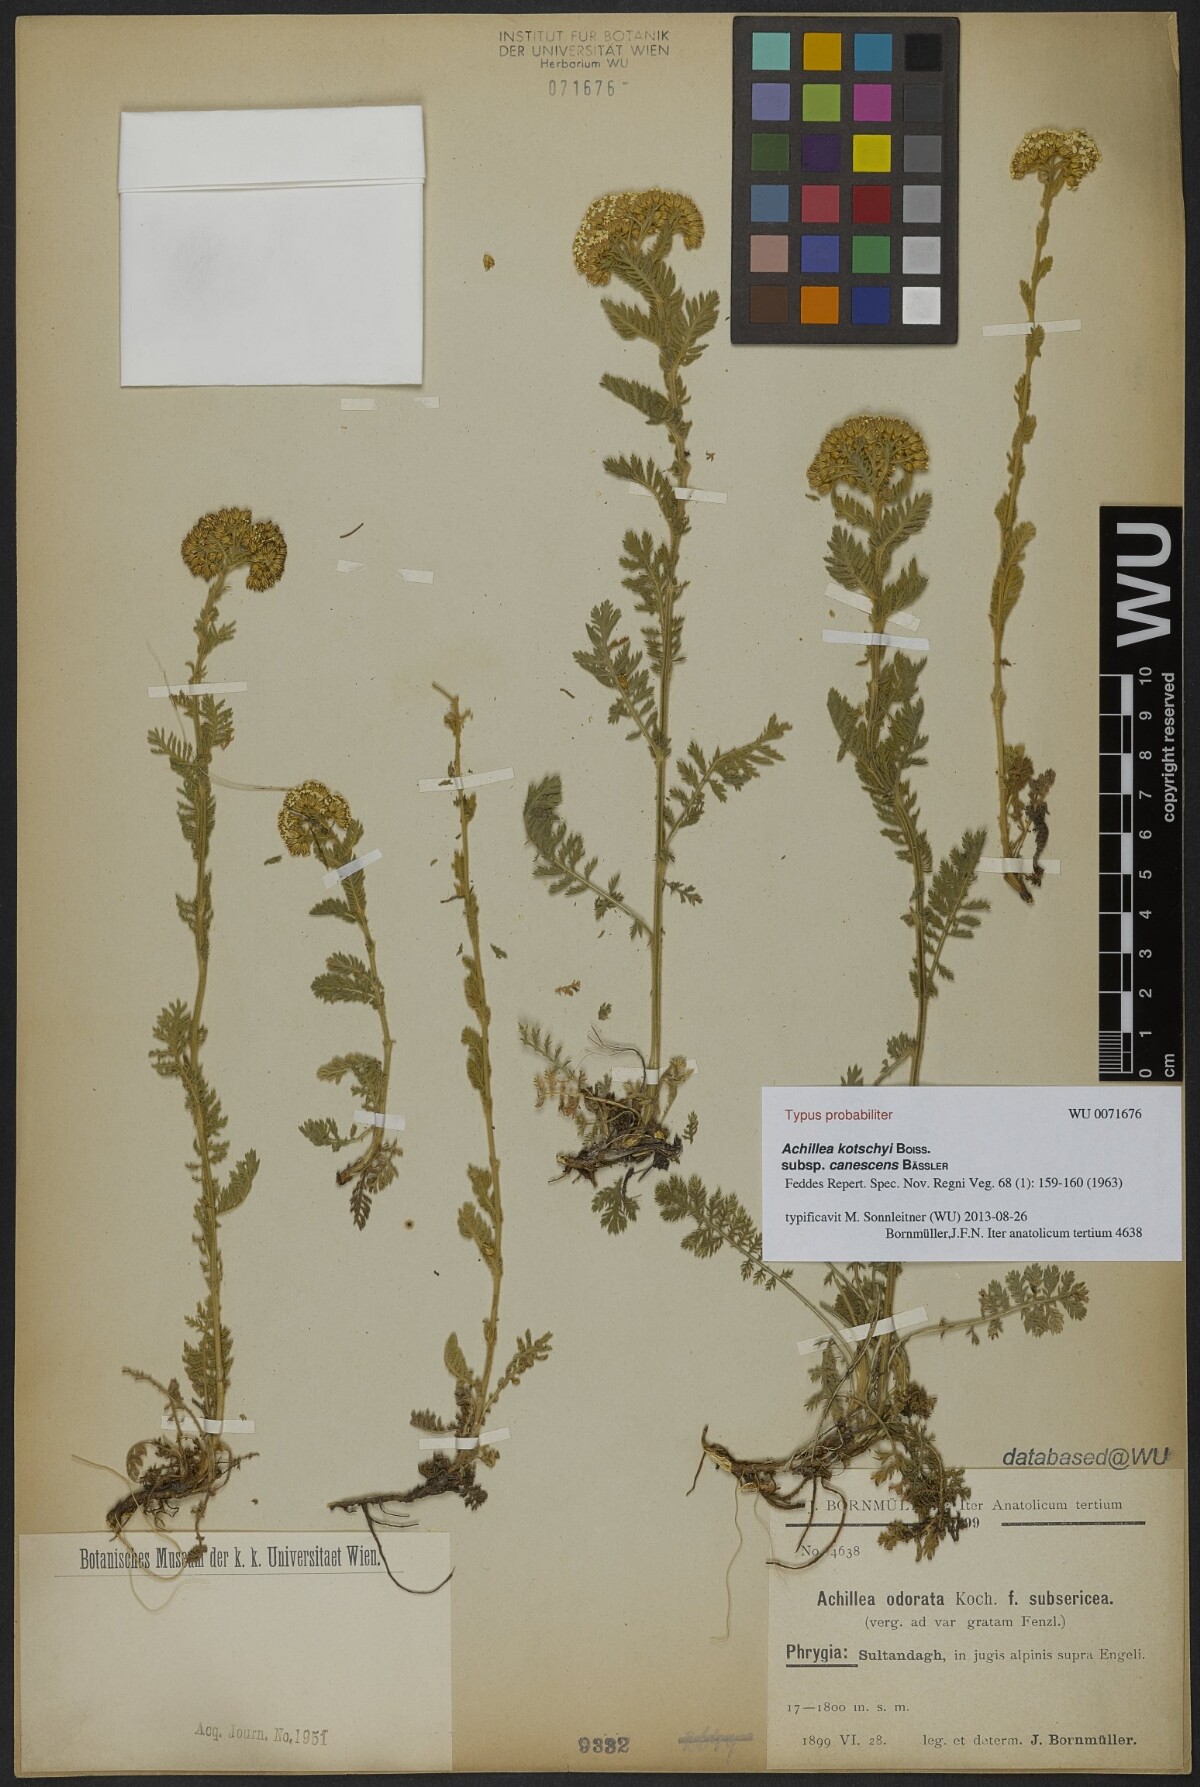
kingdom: Plantae
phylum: Tracheophyta
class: Magnoliopsida
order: Asterales
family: Asteraceae
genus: Achillea
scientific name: Achillea kotschyi
